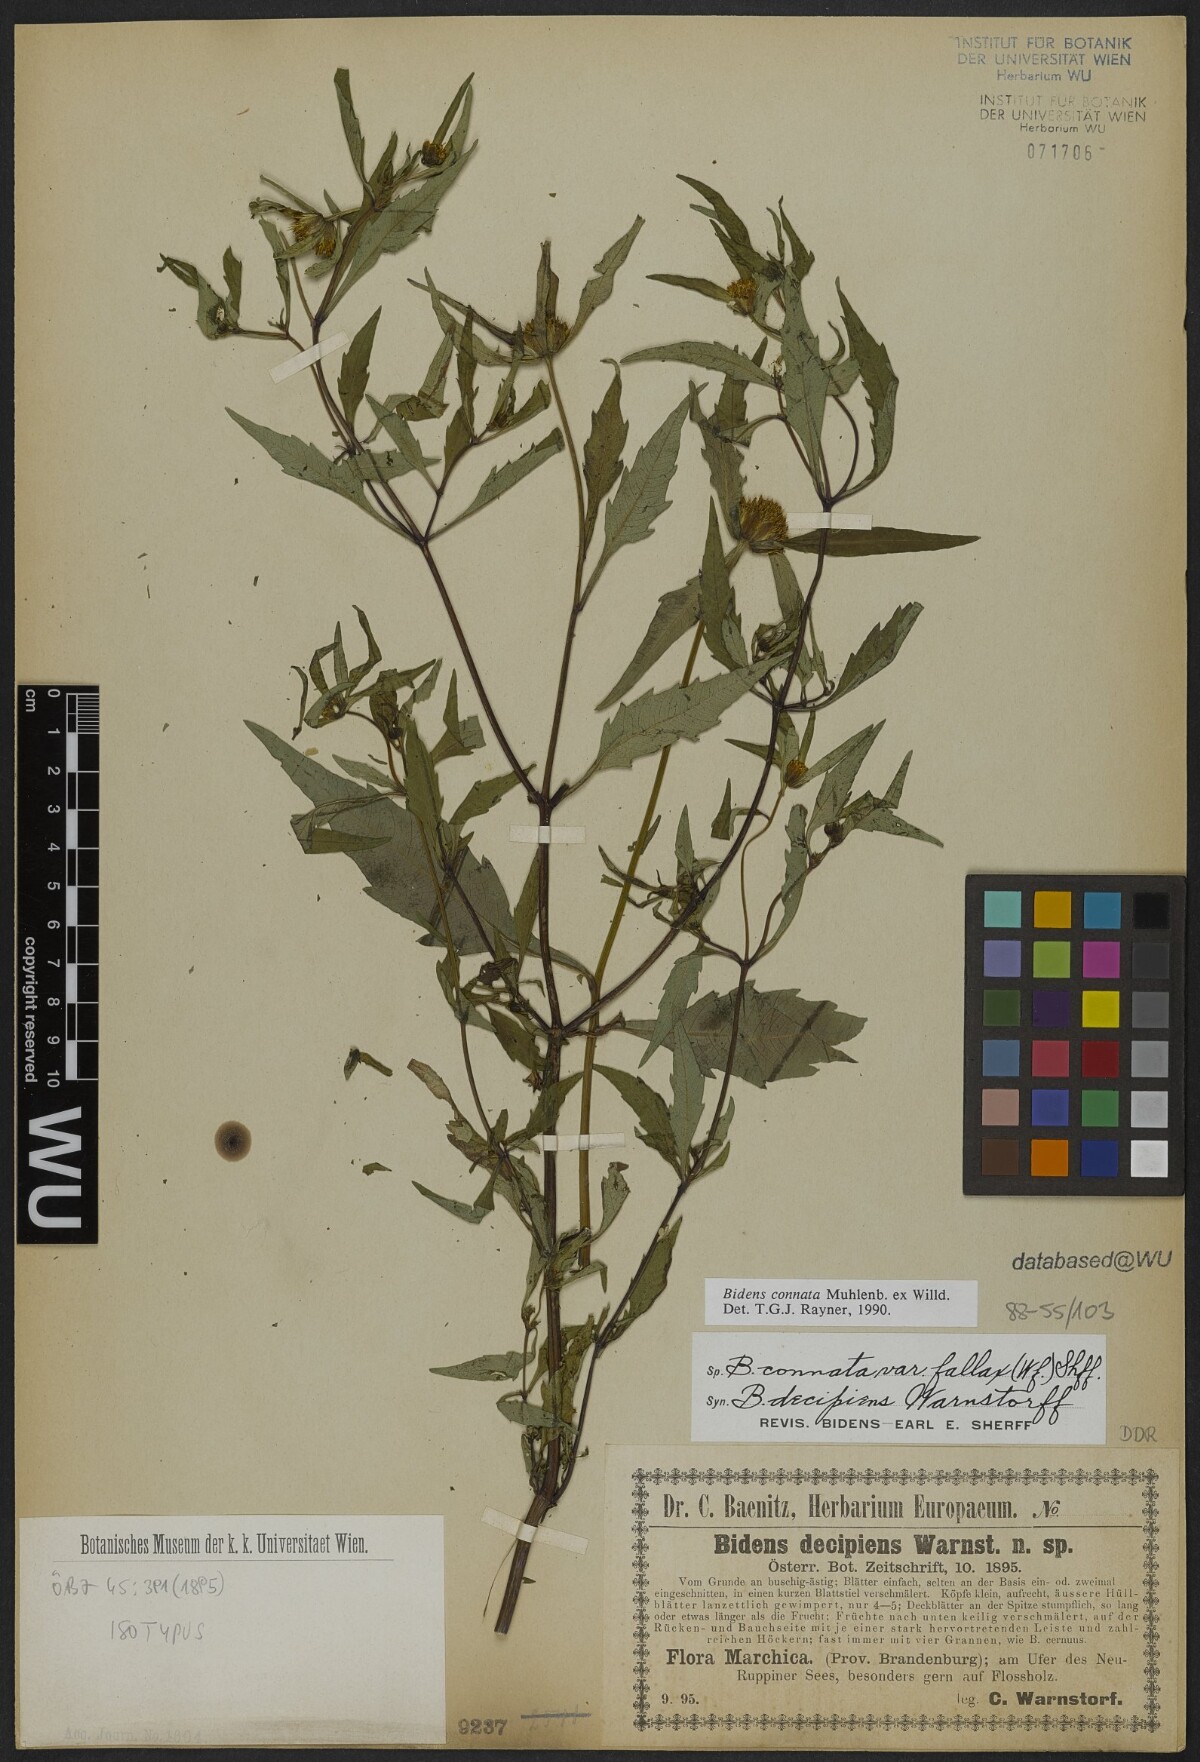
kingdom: Plantae
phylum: Tracheophyta
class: Magnoliopsida
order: Asterales
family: Asteraceae
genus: Bidens
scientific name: Bidens connata
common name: London bur-marigold
